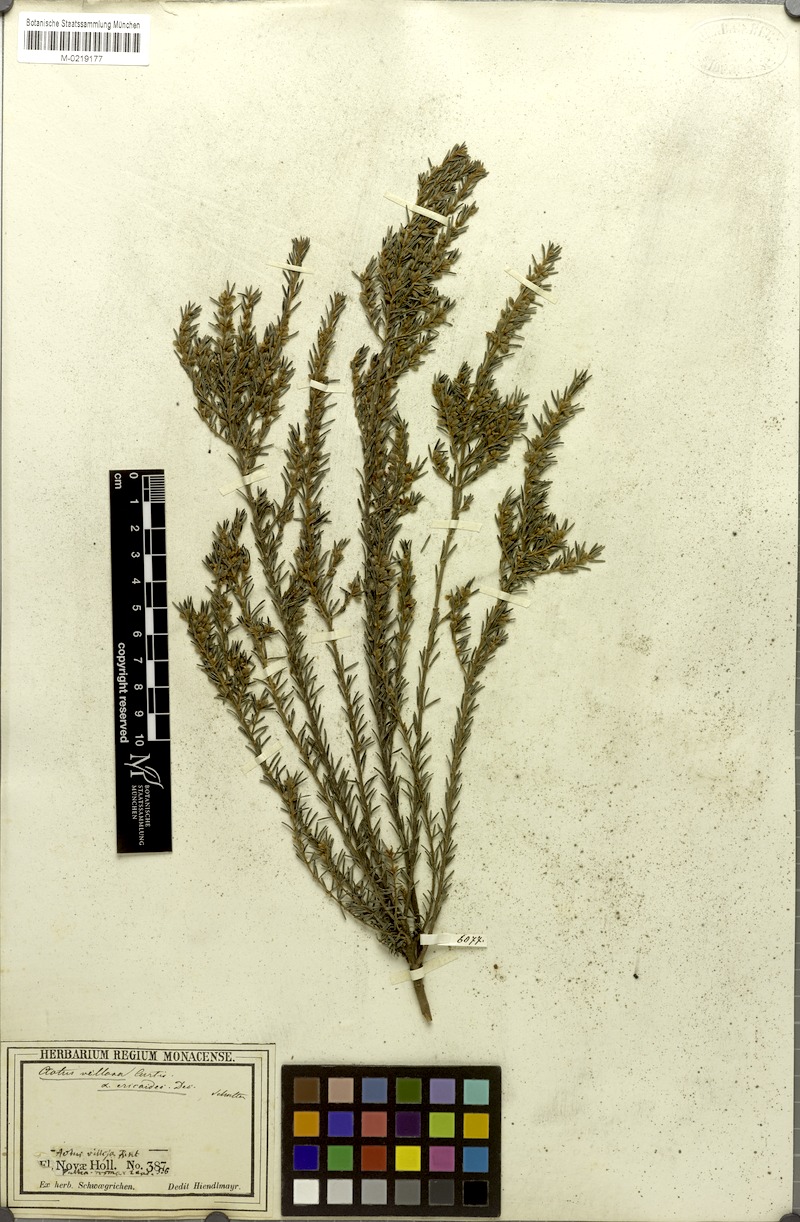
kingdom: Plantae
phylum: Tracheophyta
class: Magnoliopsida
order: Fabales
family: Fabaceae
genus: Aotus
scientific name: Aotus ericoides
